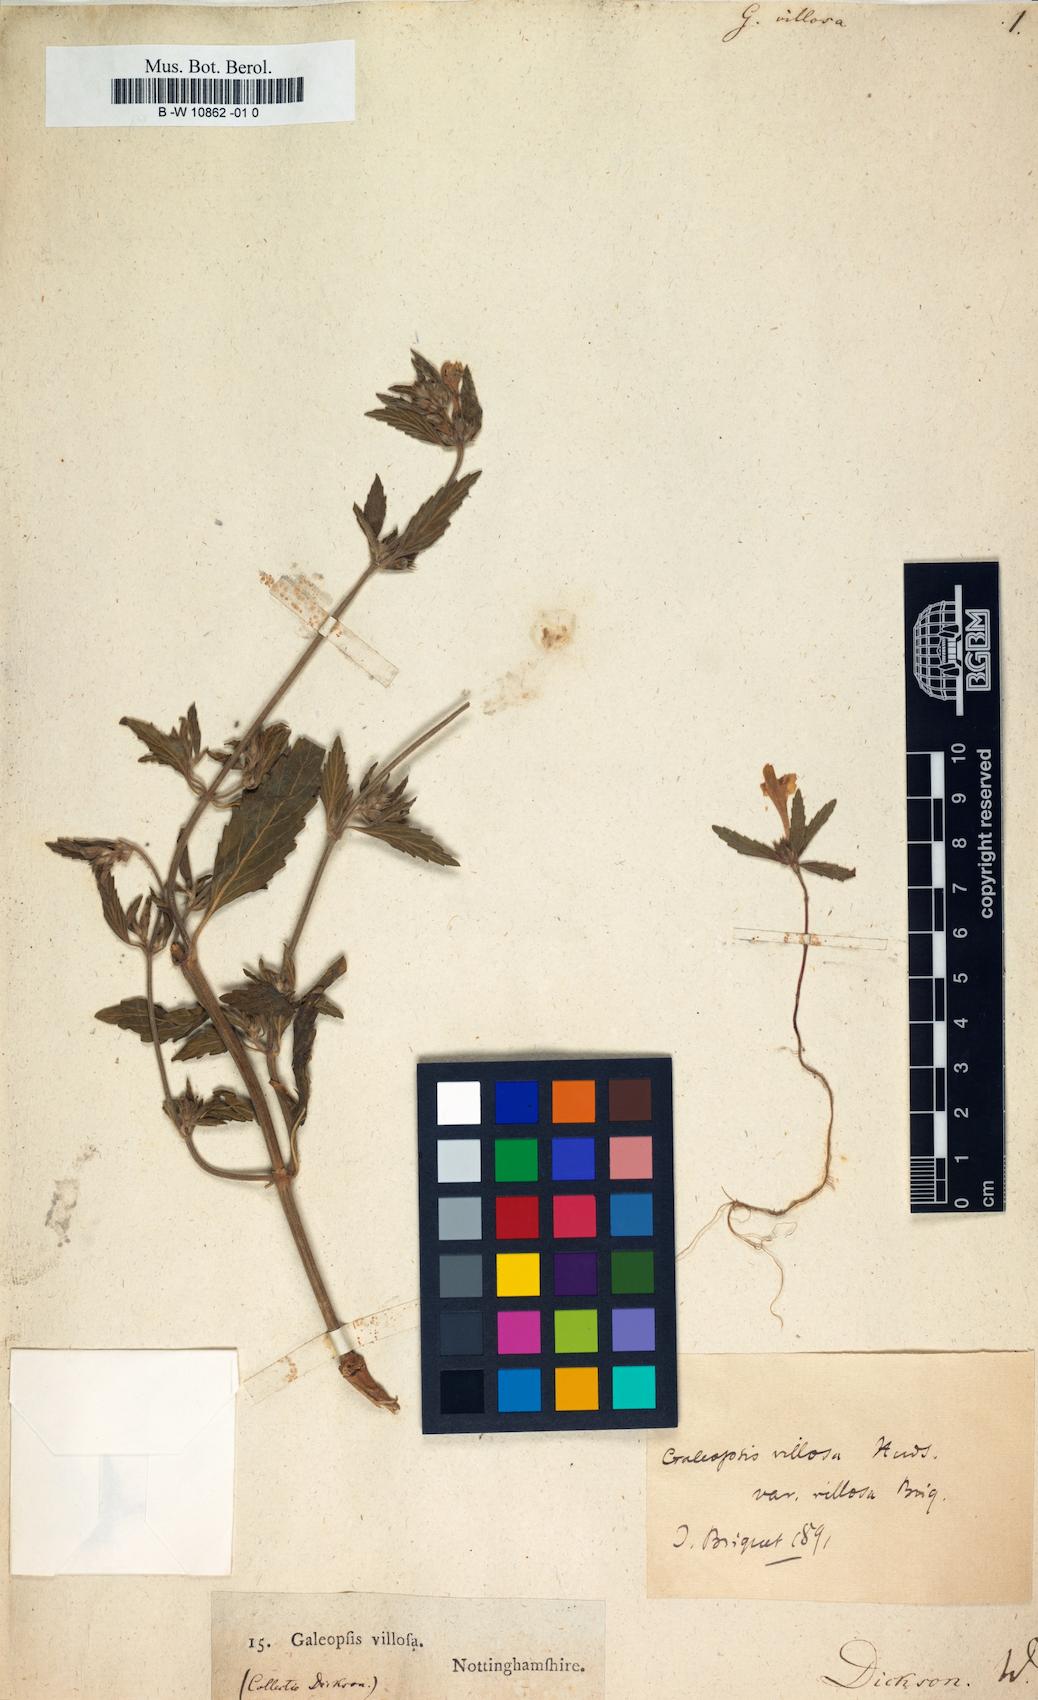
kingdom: Plantae
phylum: Tracheophyta
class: Magnoliopsida
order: Lamiales
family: Lamiaceae
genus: Galeopsis
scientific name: Galeopsis segetum
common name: Downy hemp-nettle
